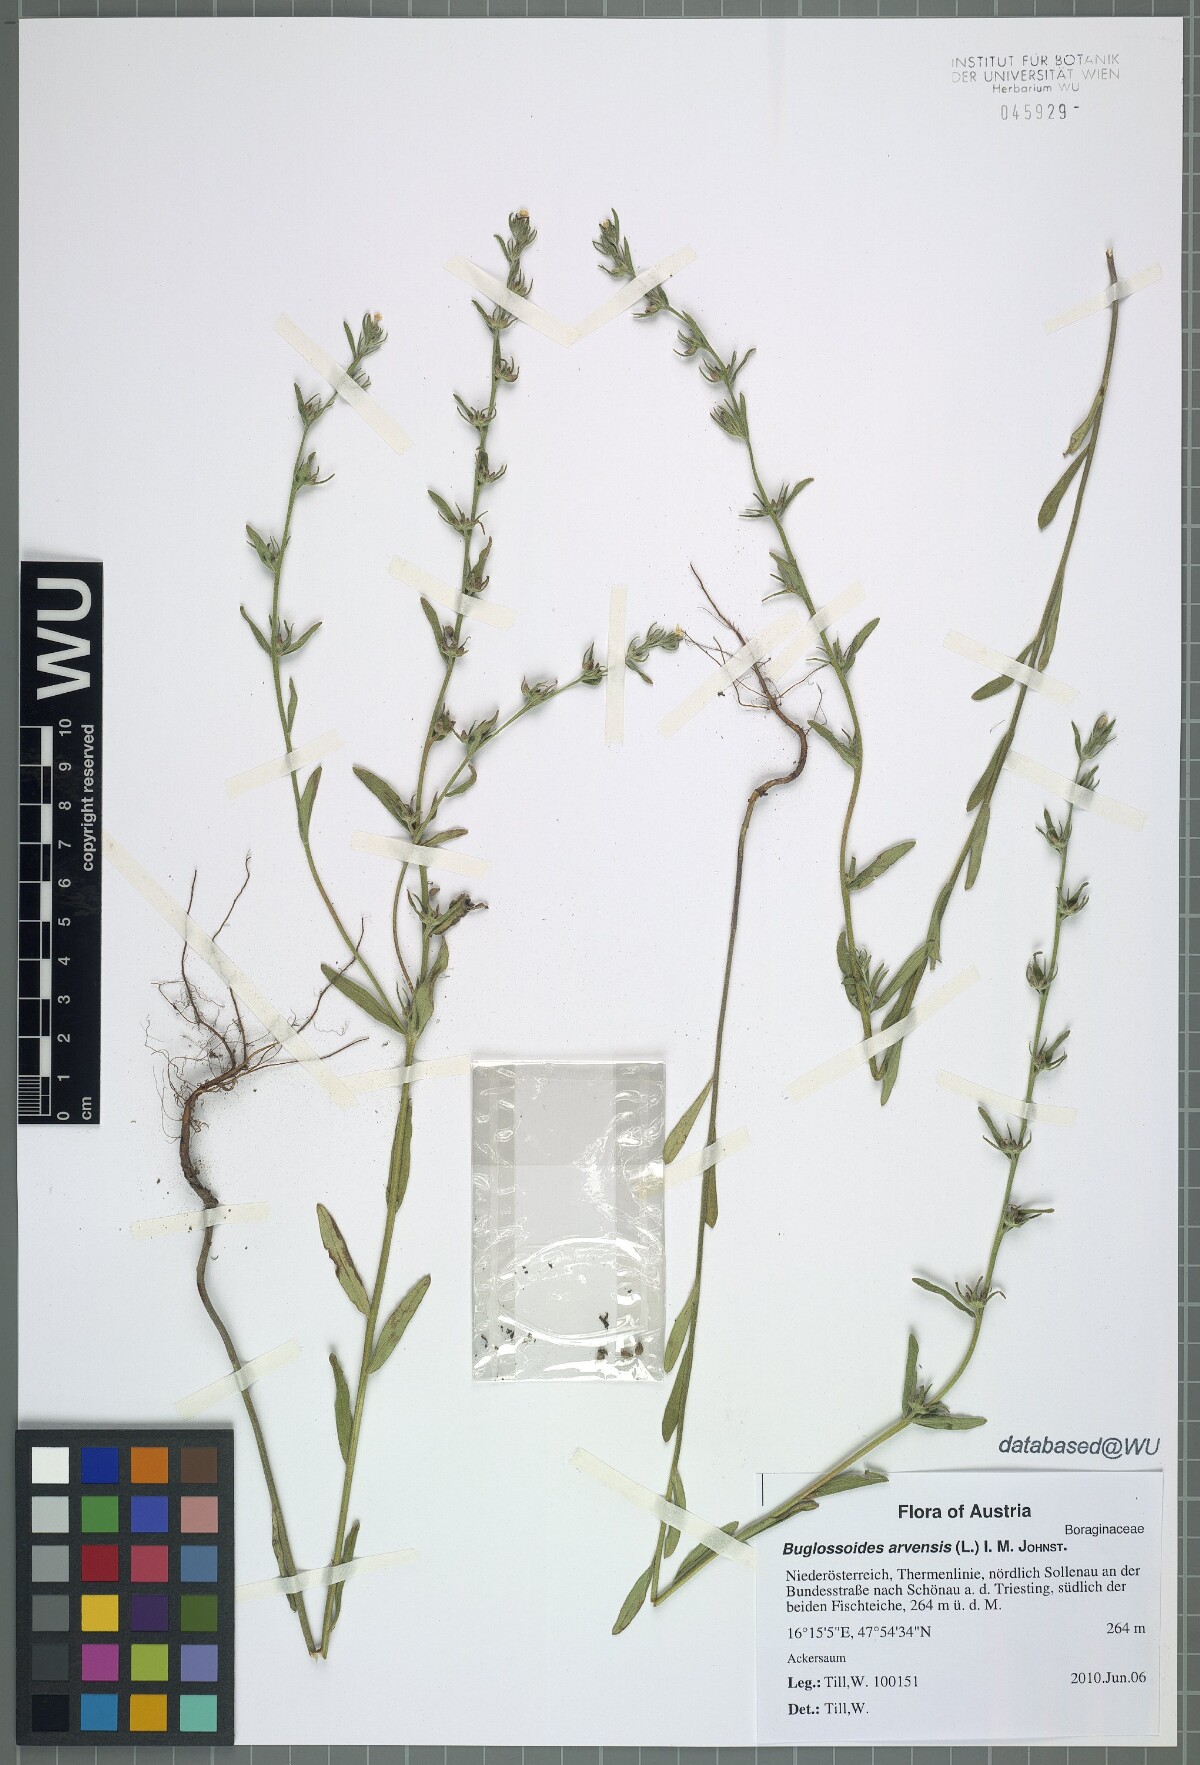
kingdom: Plantae
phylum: Tracheophyta
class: Magnoliopsida
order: Boraginales
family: Boraginaceae
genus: Buglossoides
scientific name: Buglossoides arvensis
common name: Corn gromwell
